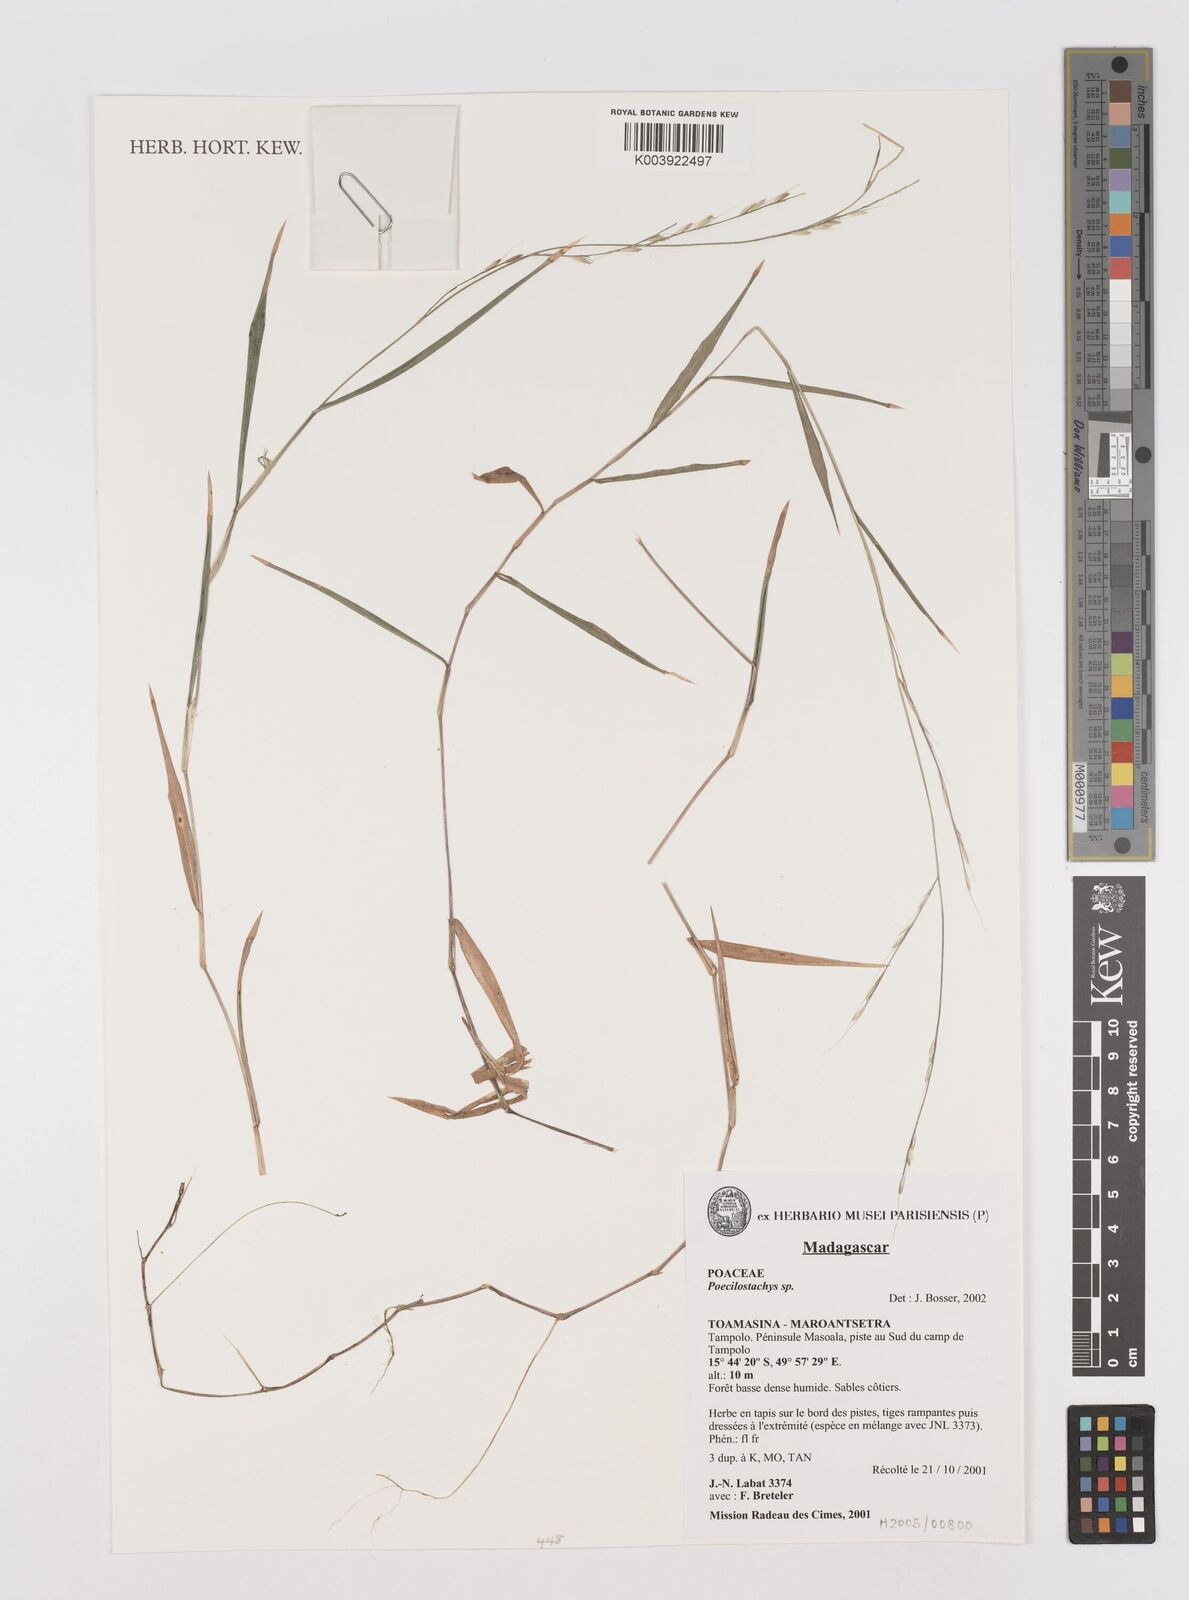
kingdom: Plantae
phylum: Tracheophyta
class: Liliopsida
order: Poales
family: Poaceae
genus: Poecilostachys
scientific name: Poecilostachys
